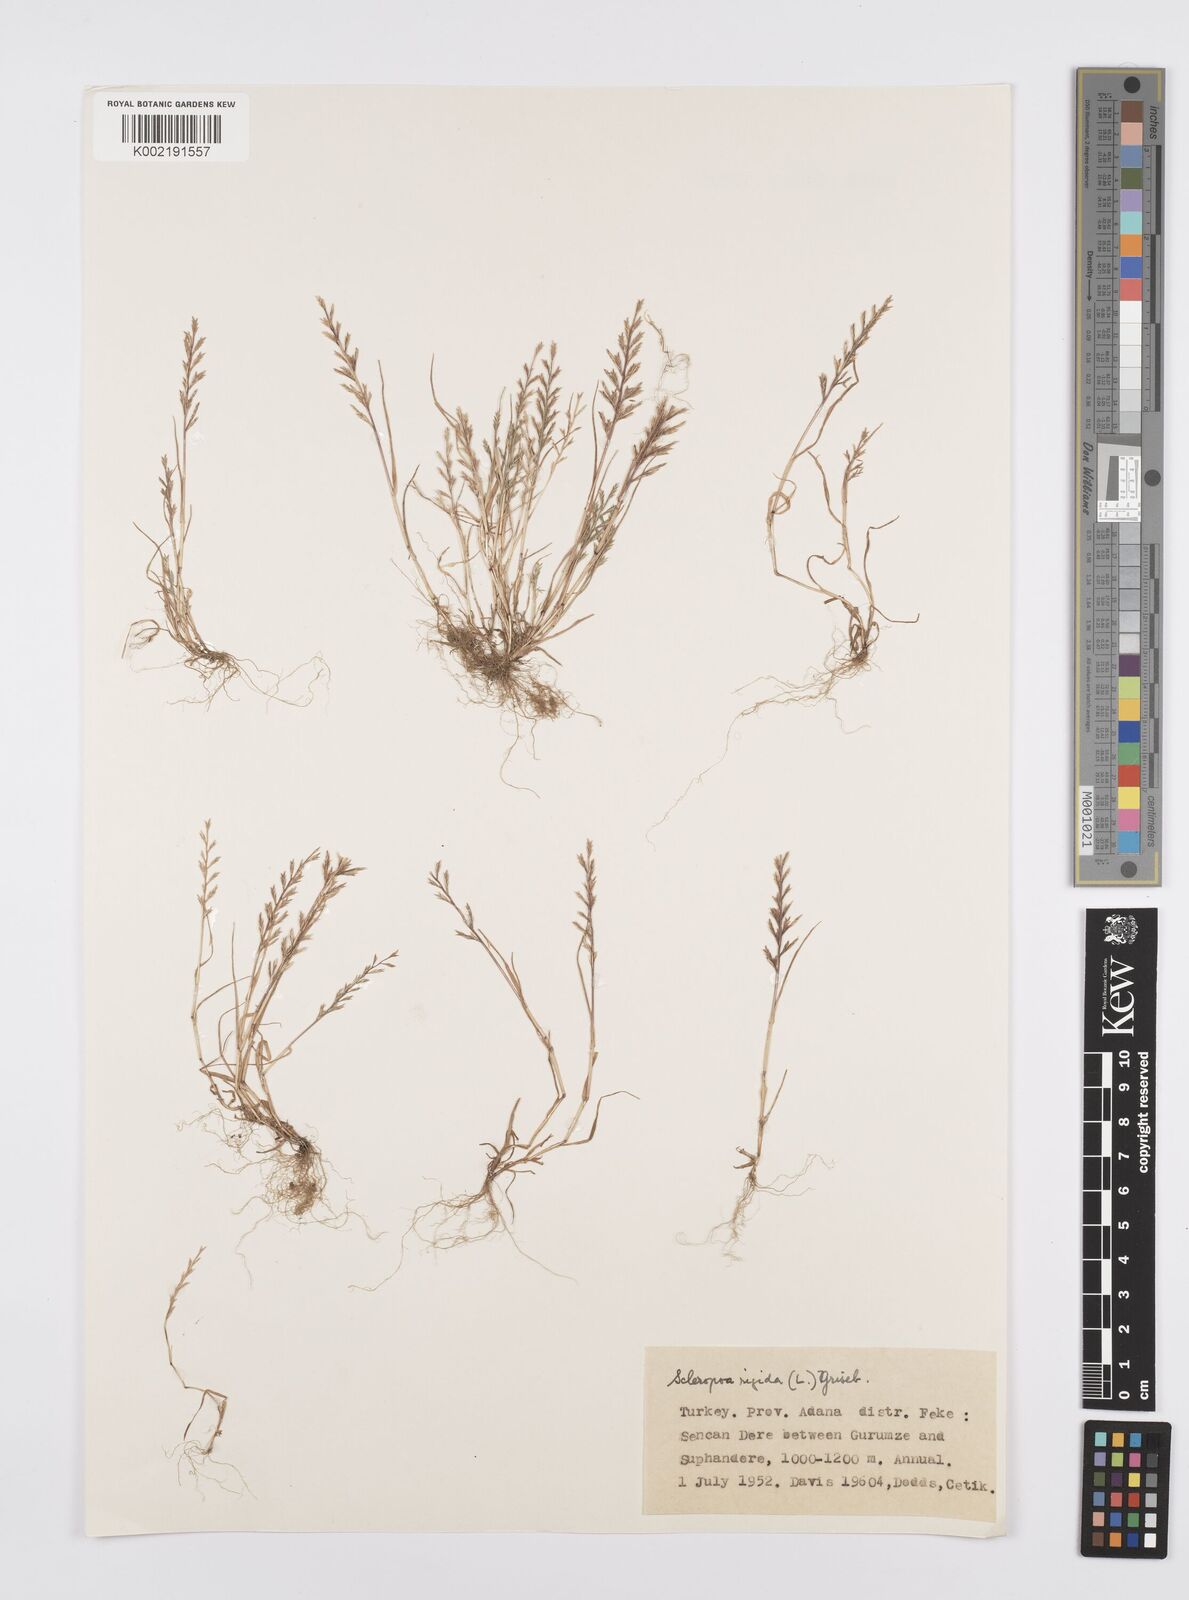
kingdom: Plantae
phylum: Tracheophyta
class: Liliopsida
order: Poales
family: Poaceae
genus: Catapodium
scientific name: Catapodium rigidum
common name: Fern-grass
